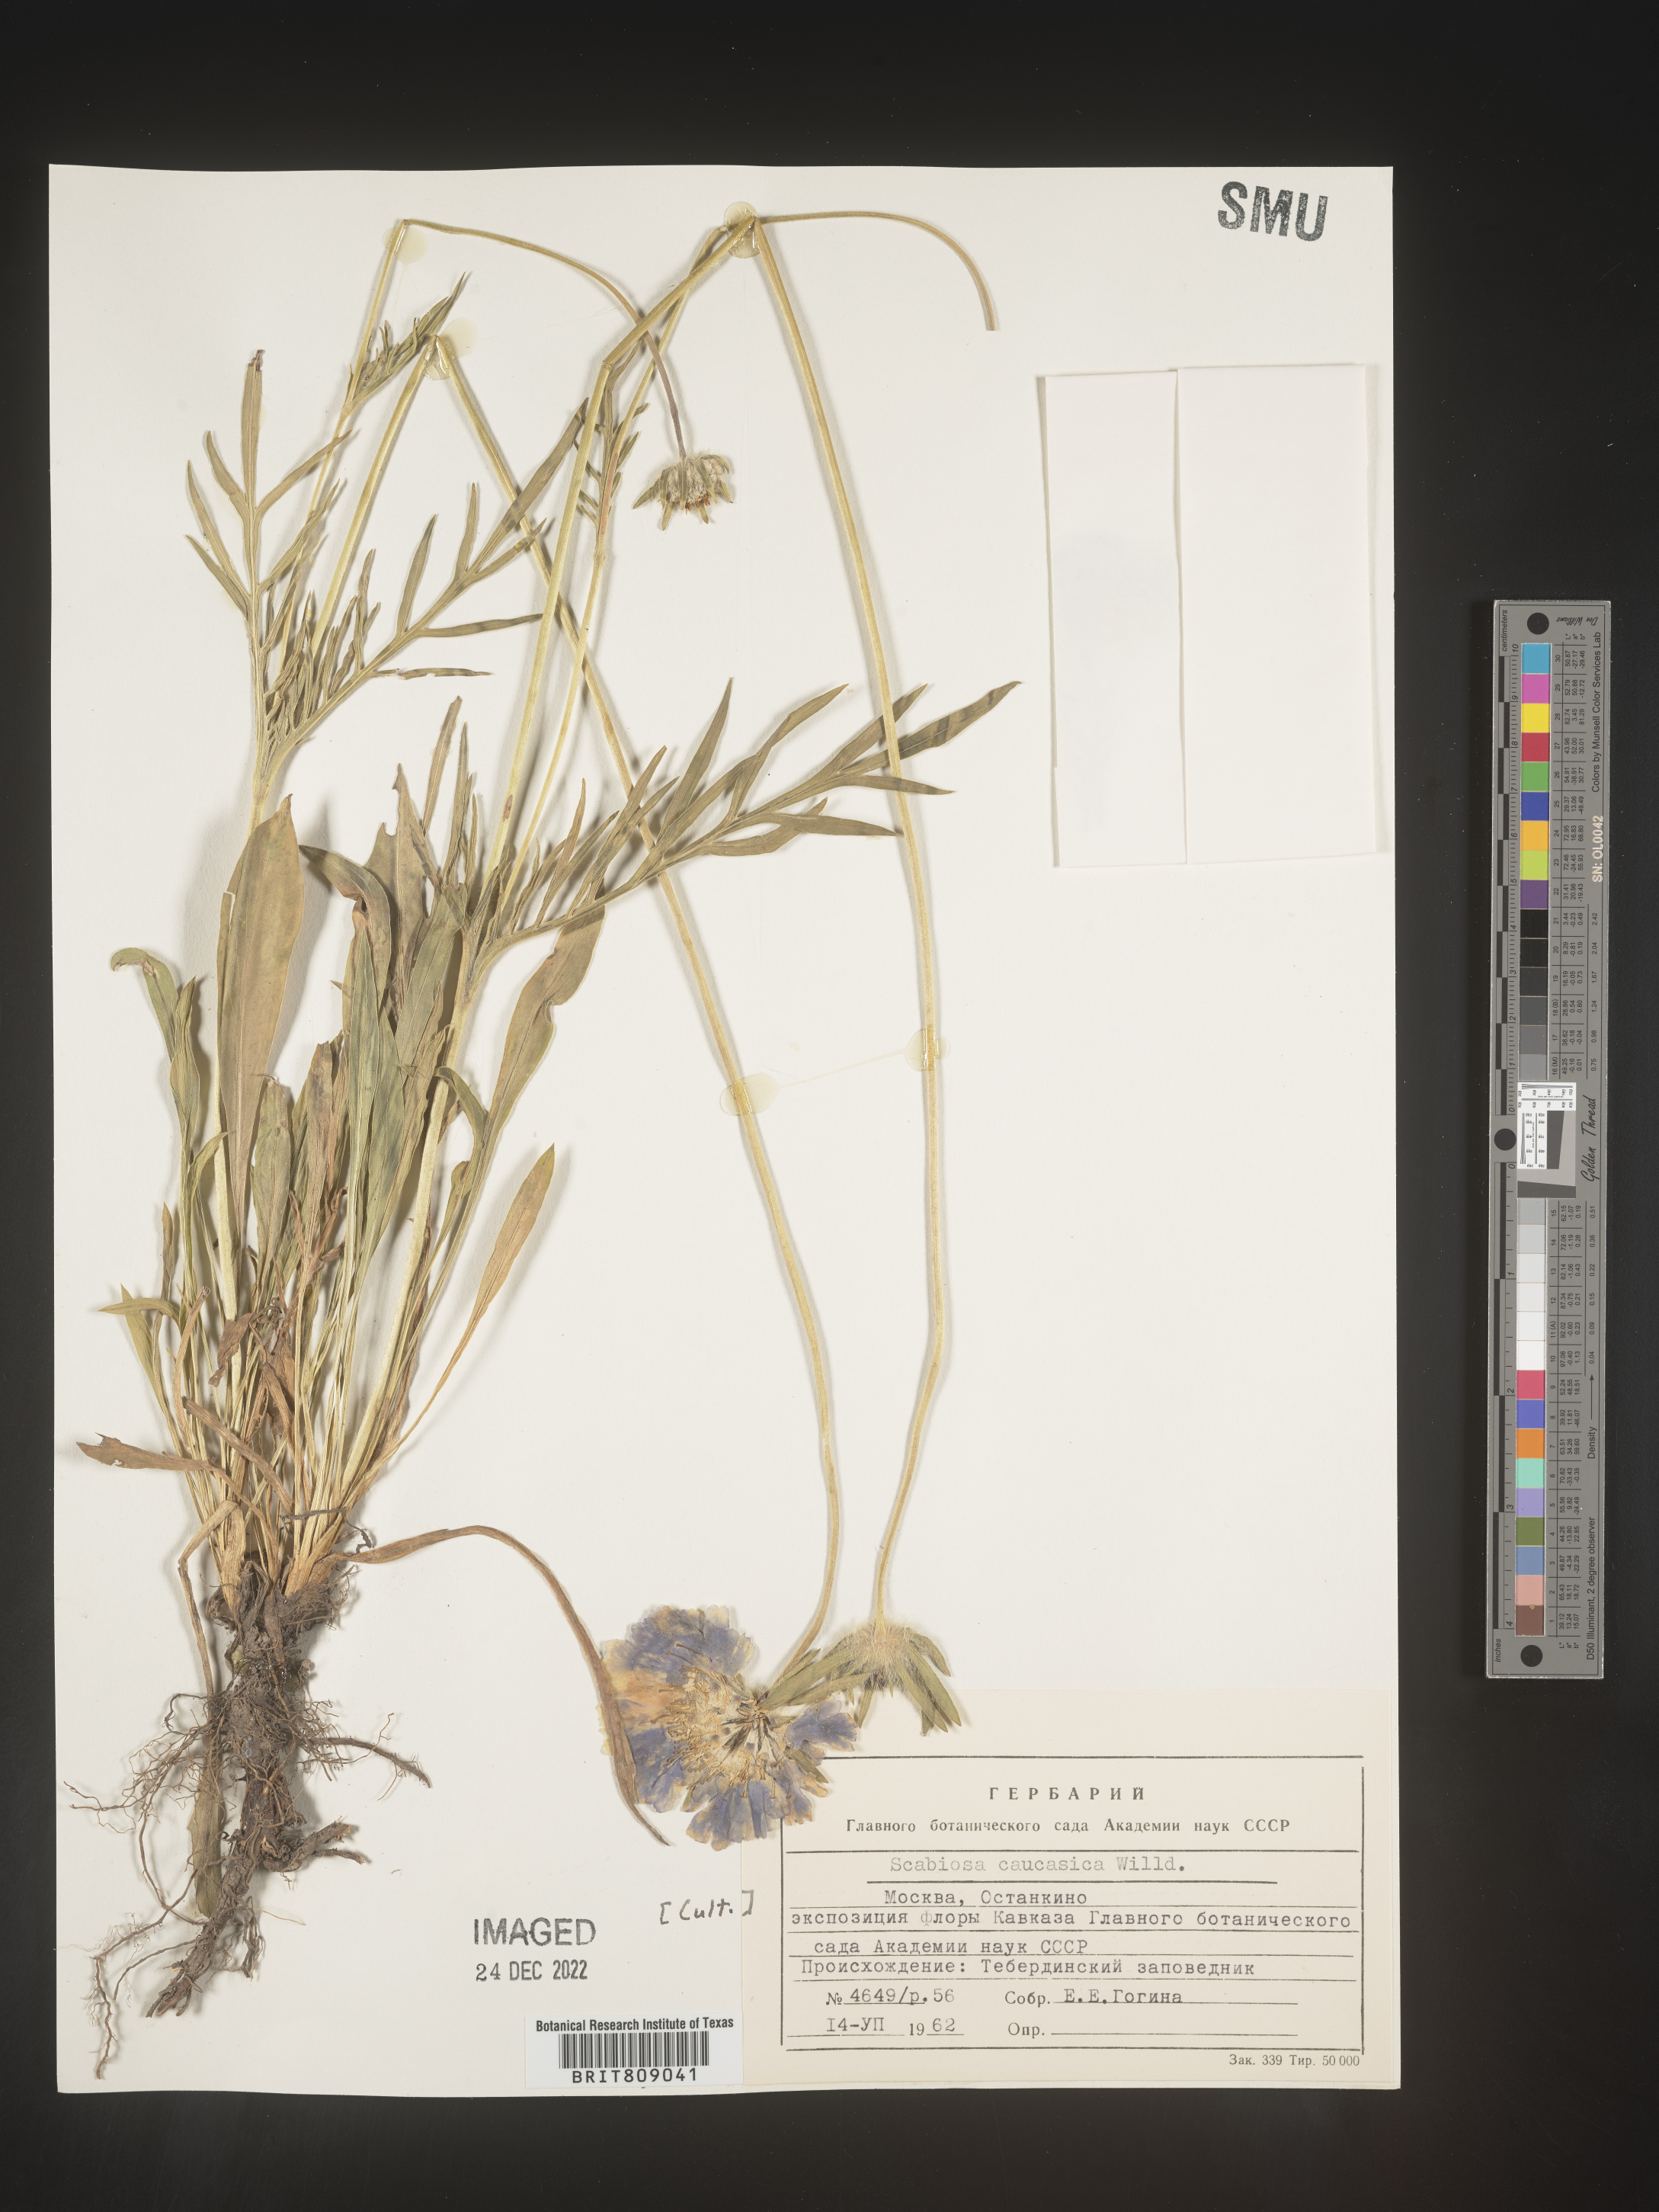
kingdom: Plantae
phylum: Tracheophyta
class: Magnoliopsida
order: Dipsacales
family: Caprifoliaceae
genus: Scabiosa
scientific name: Scabiosa
